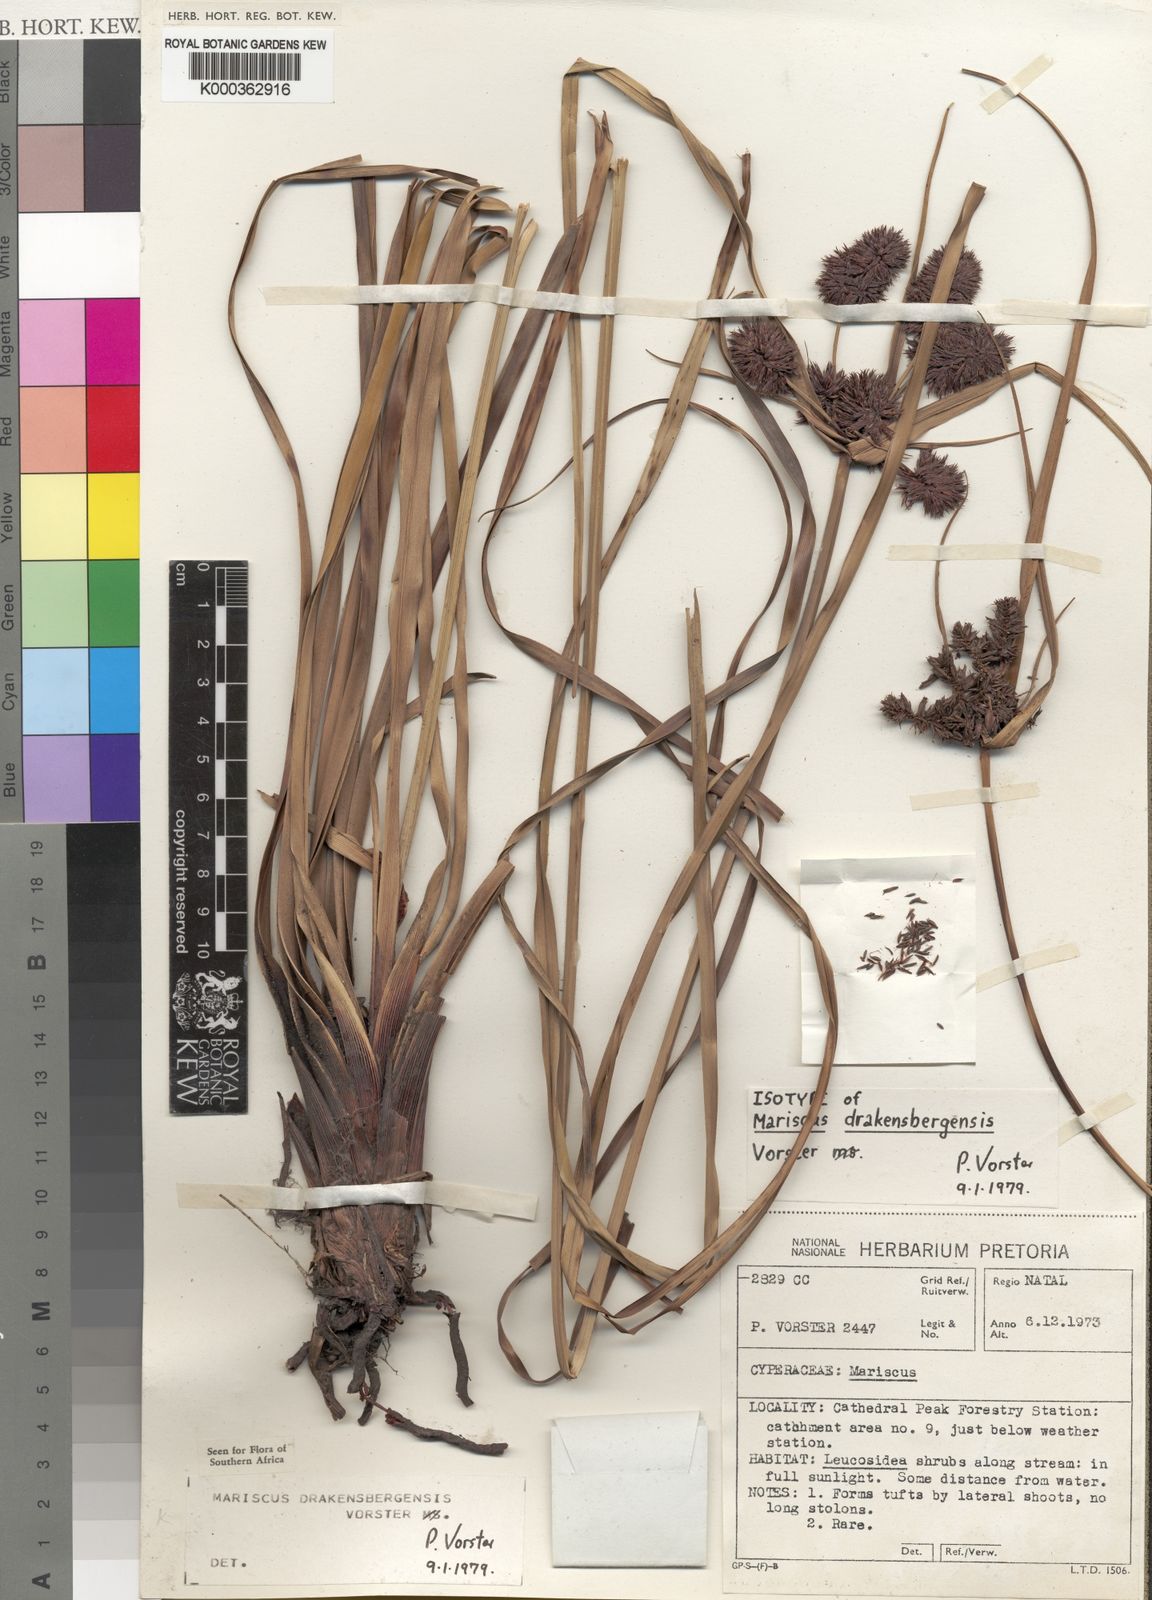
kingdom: Plantae
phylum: Tracheophyta
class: Liliopsida
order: Poales
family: Cyperaceae
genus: Cyperus
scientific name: Cyperus drakensbergensis
